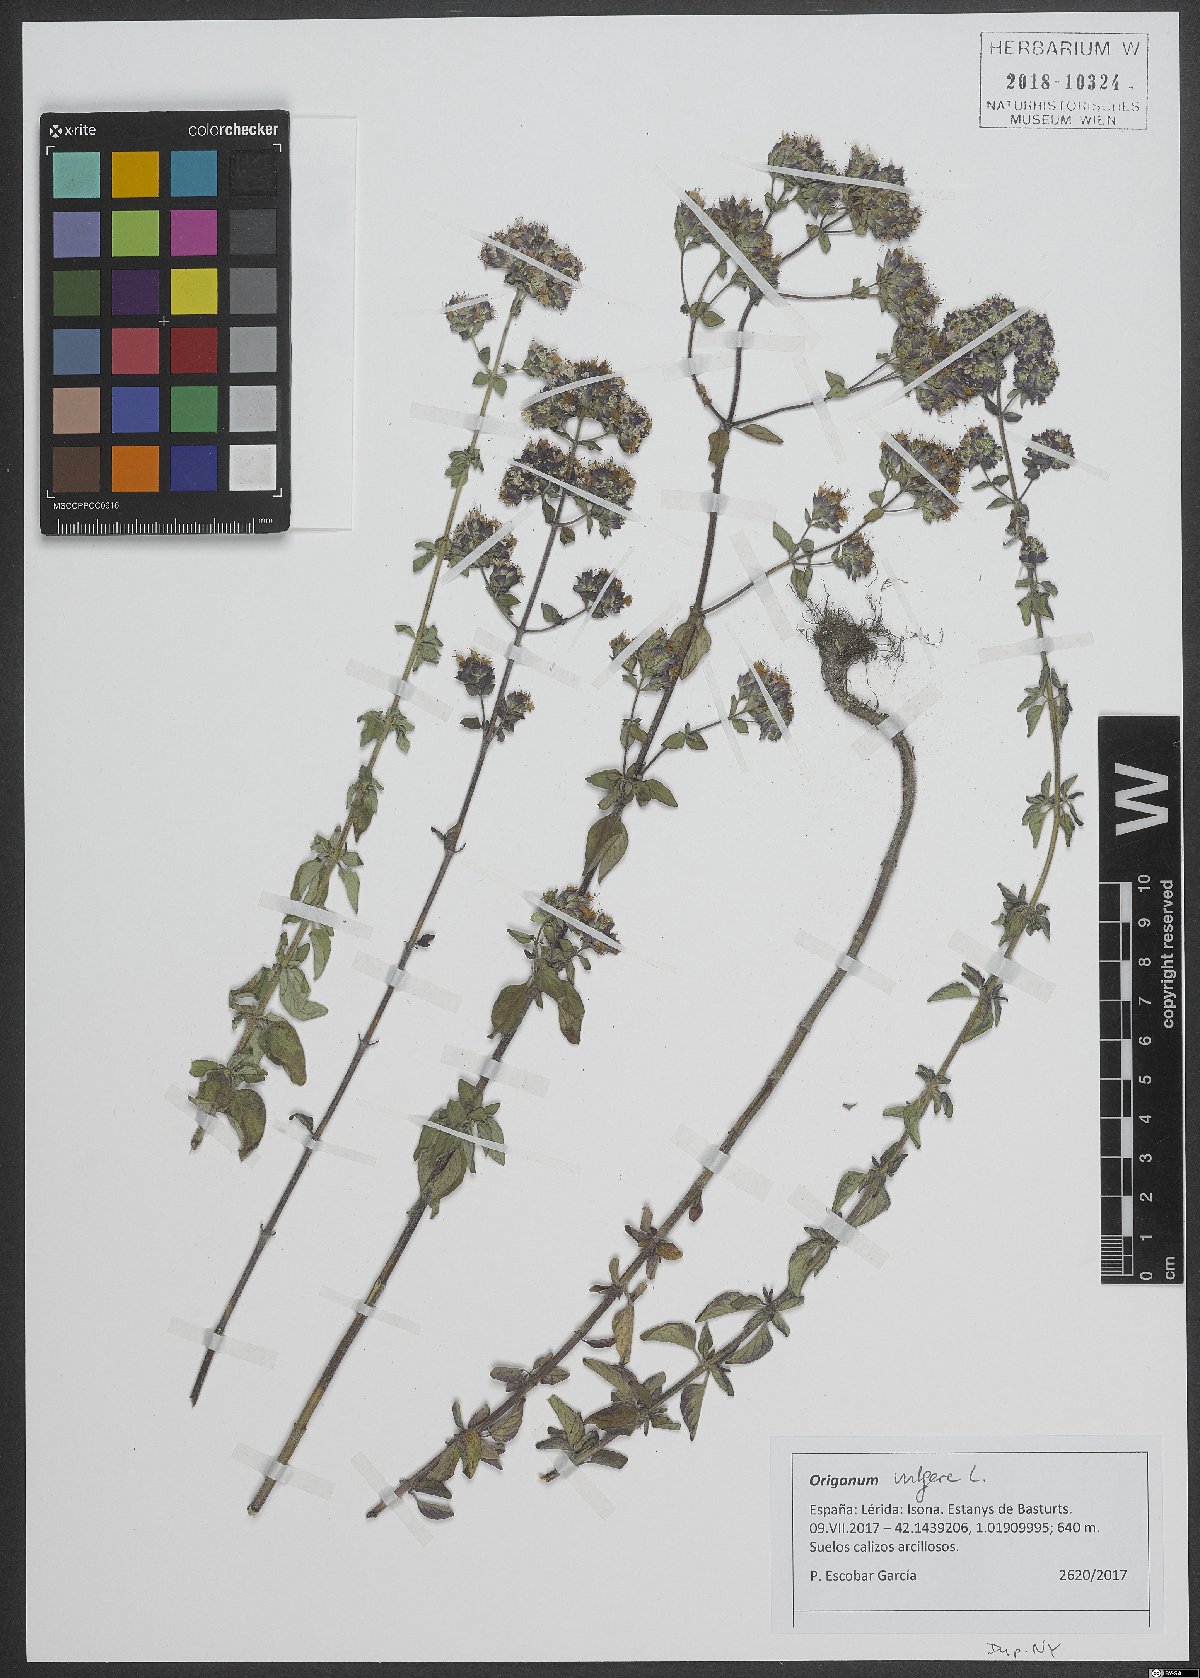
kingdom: Plantae
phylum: Tracheophyta
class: Magnoliopsida
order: Lamiales
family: Lamiaceae
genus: Origanum
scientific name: Origanum vulgare
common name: Wild marjoram
